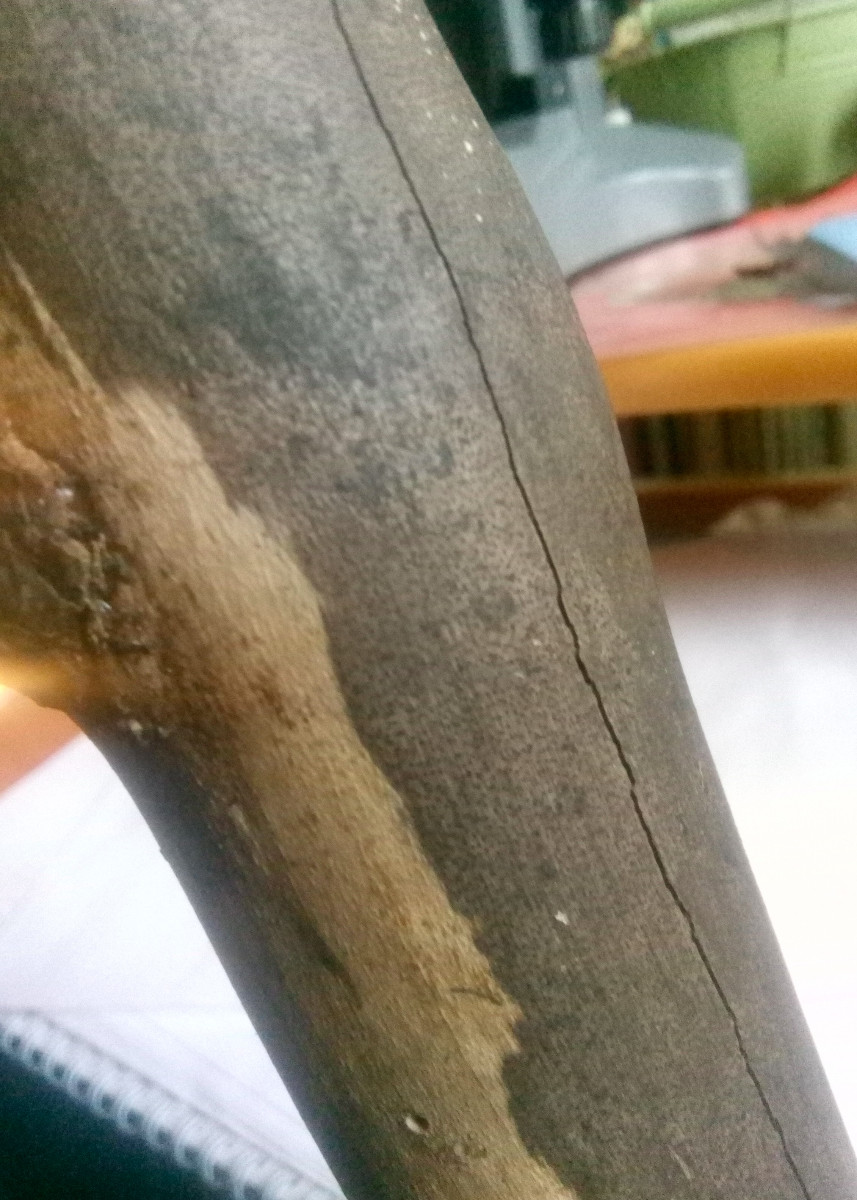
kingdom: Fungi
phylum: Ascomycota
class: Sordariomycetes
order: Xylariales
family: Diatrypaceae
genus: Eutypa
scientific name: Eutypa maura
